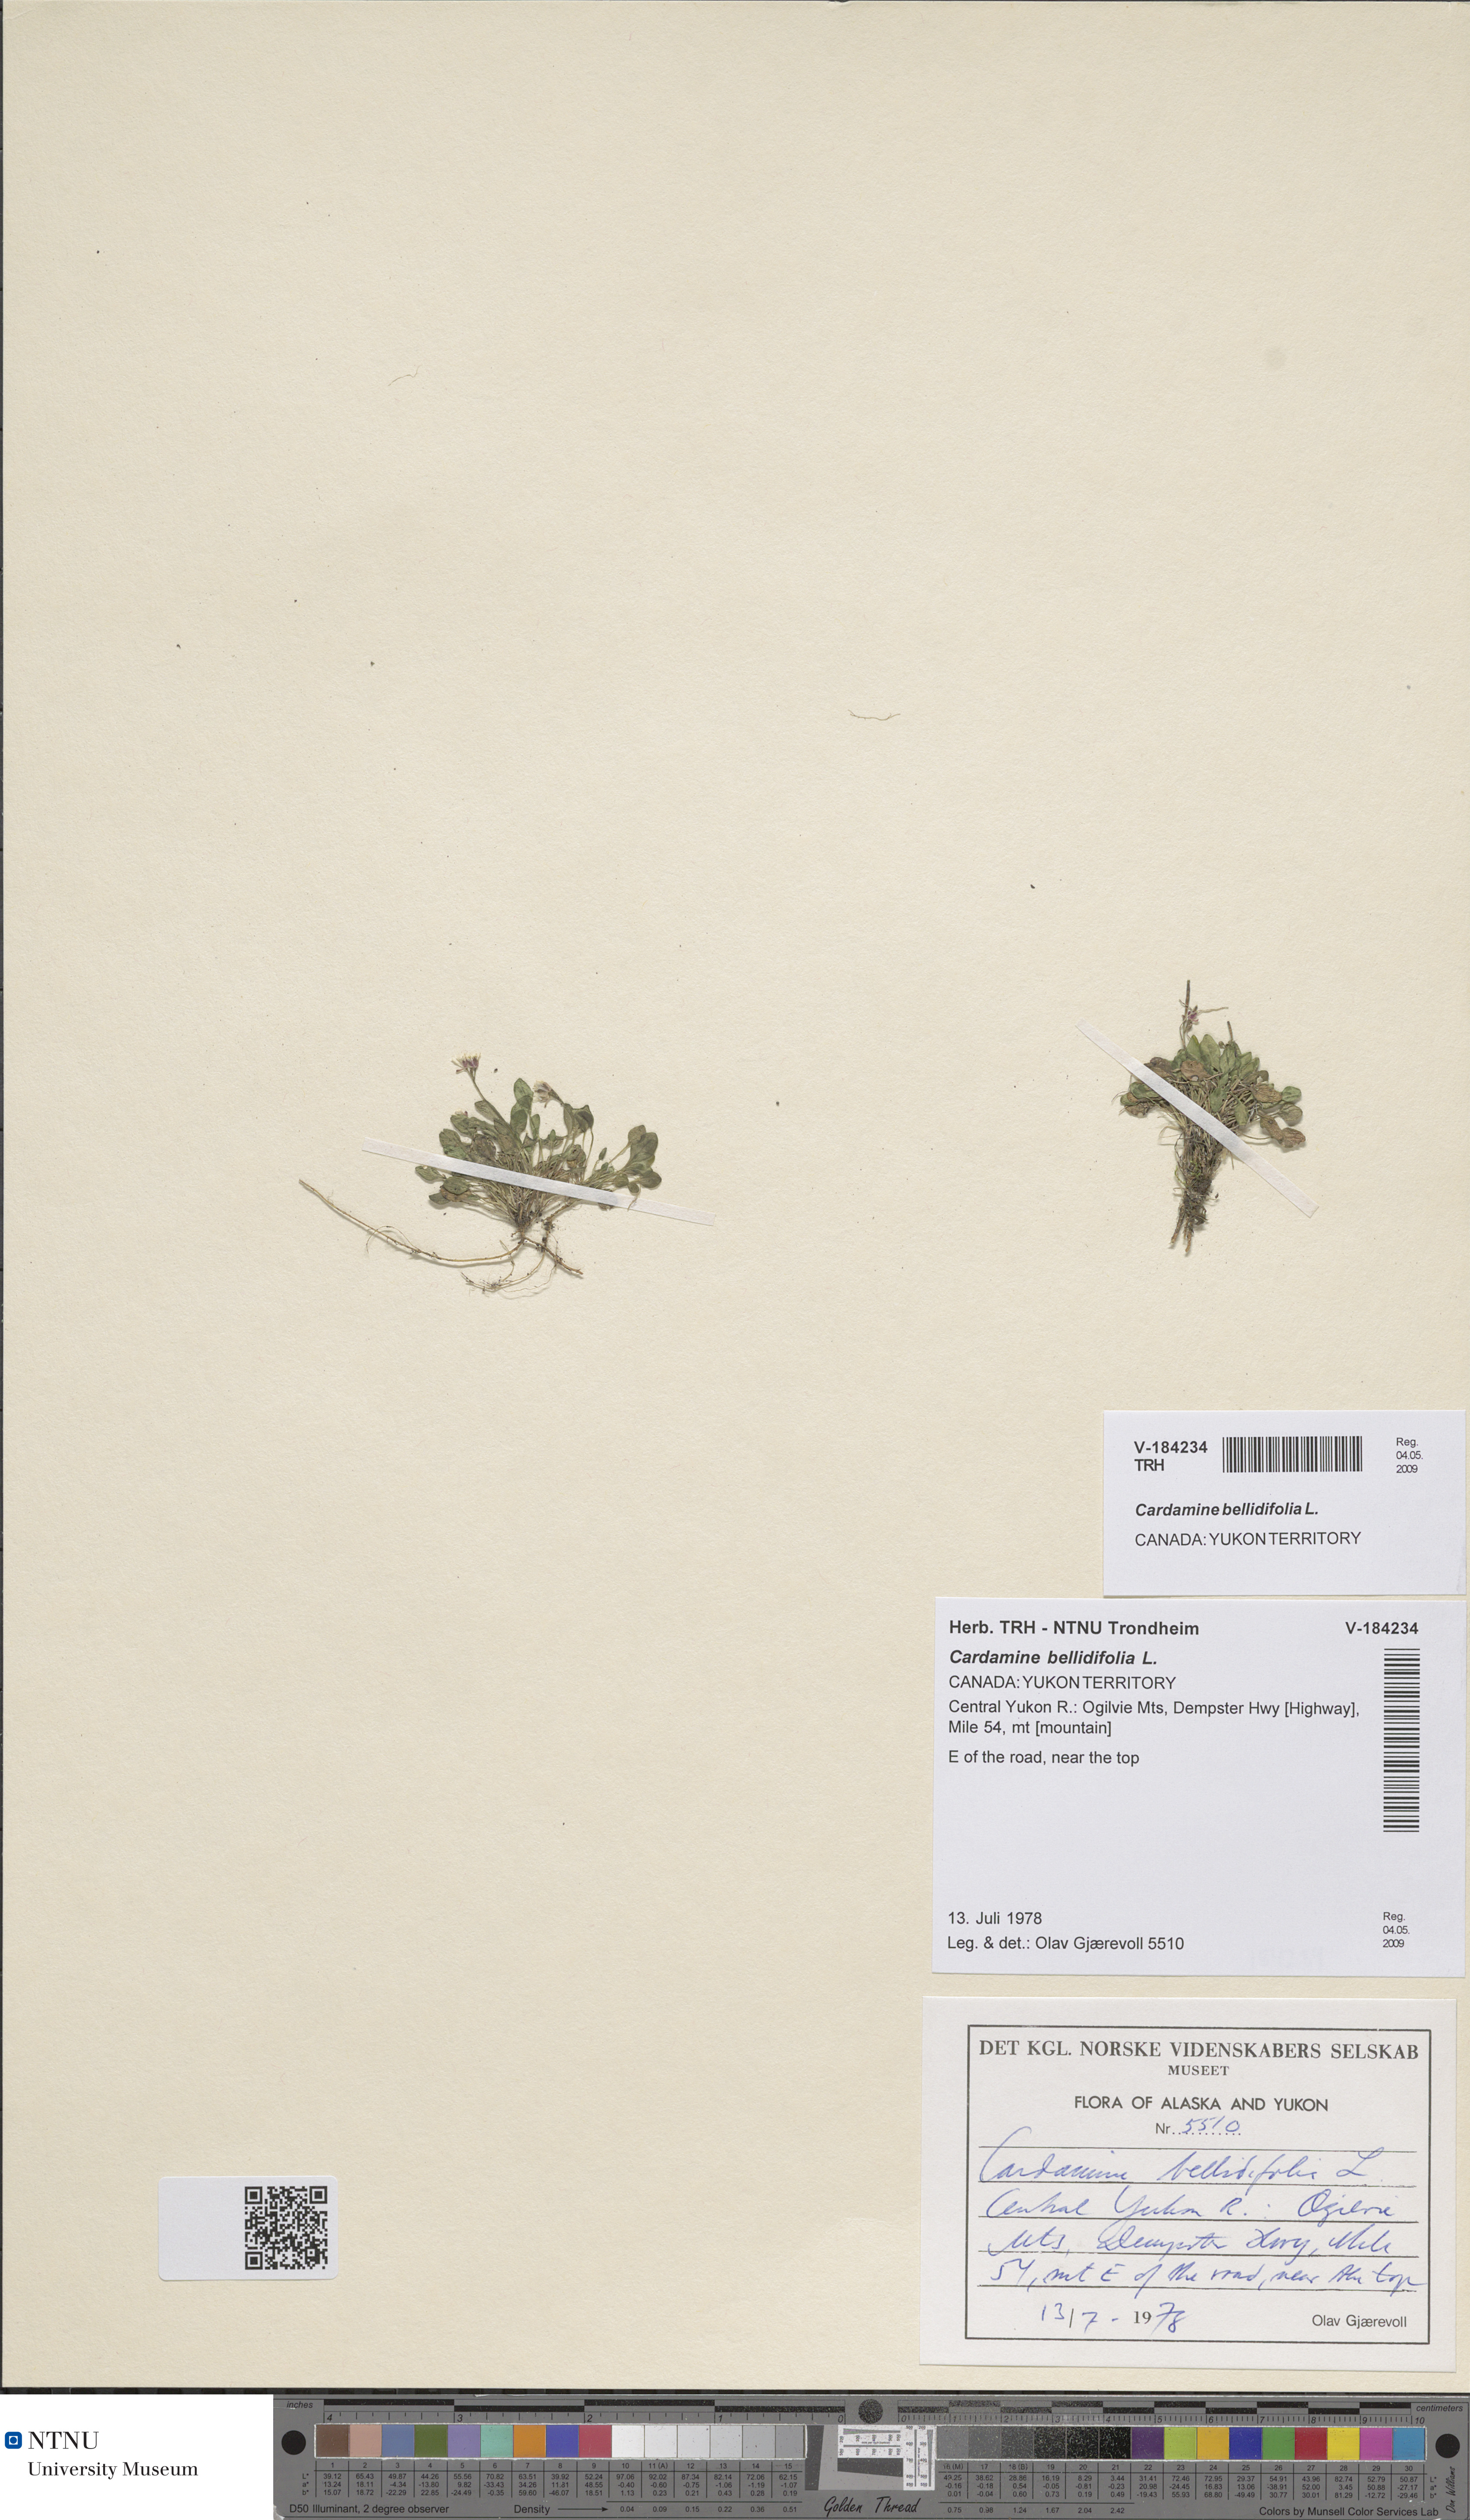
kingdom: Plantae
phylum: Tracheophyta
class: Magnoliopsida
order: Brassicales
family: Brassicaceae
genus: Cardamine
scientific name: Cardamine bellidifolia
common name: Alpine bittercress
